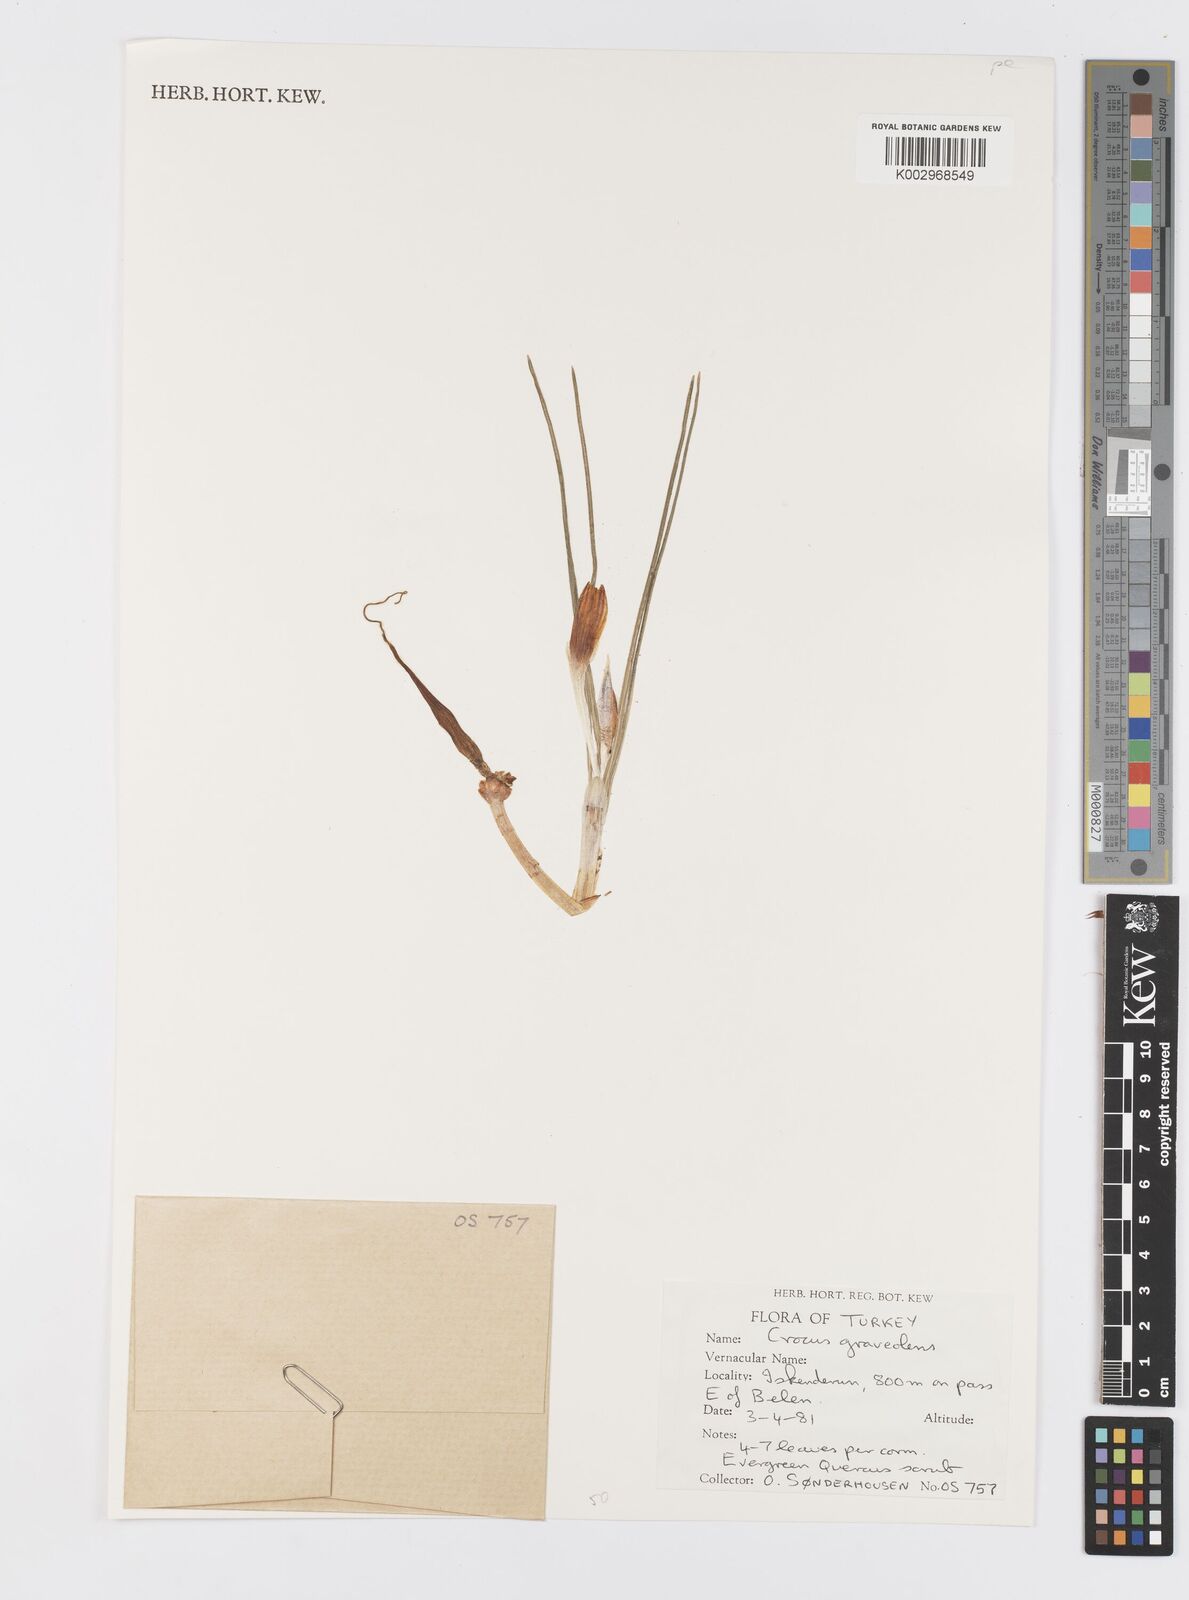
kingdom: Plantae
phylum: Tracheophyta
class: Liliopsida
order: Asparagales
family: Iridaceae
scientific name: Iridaceae
